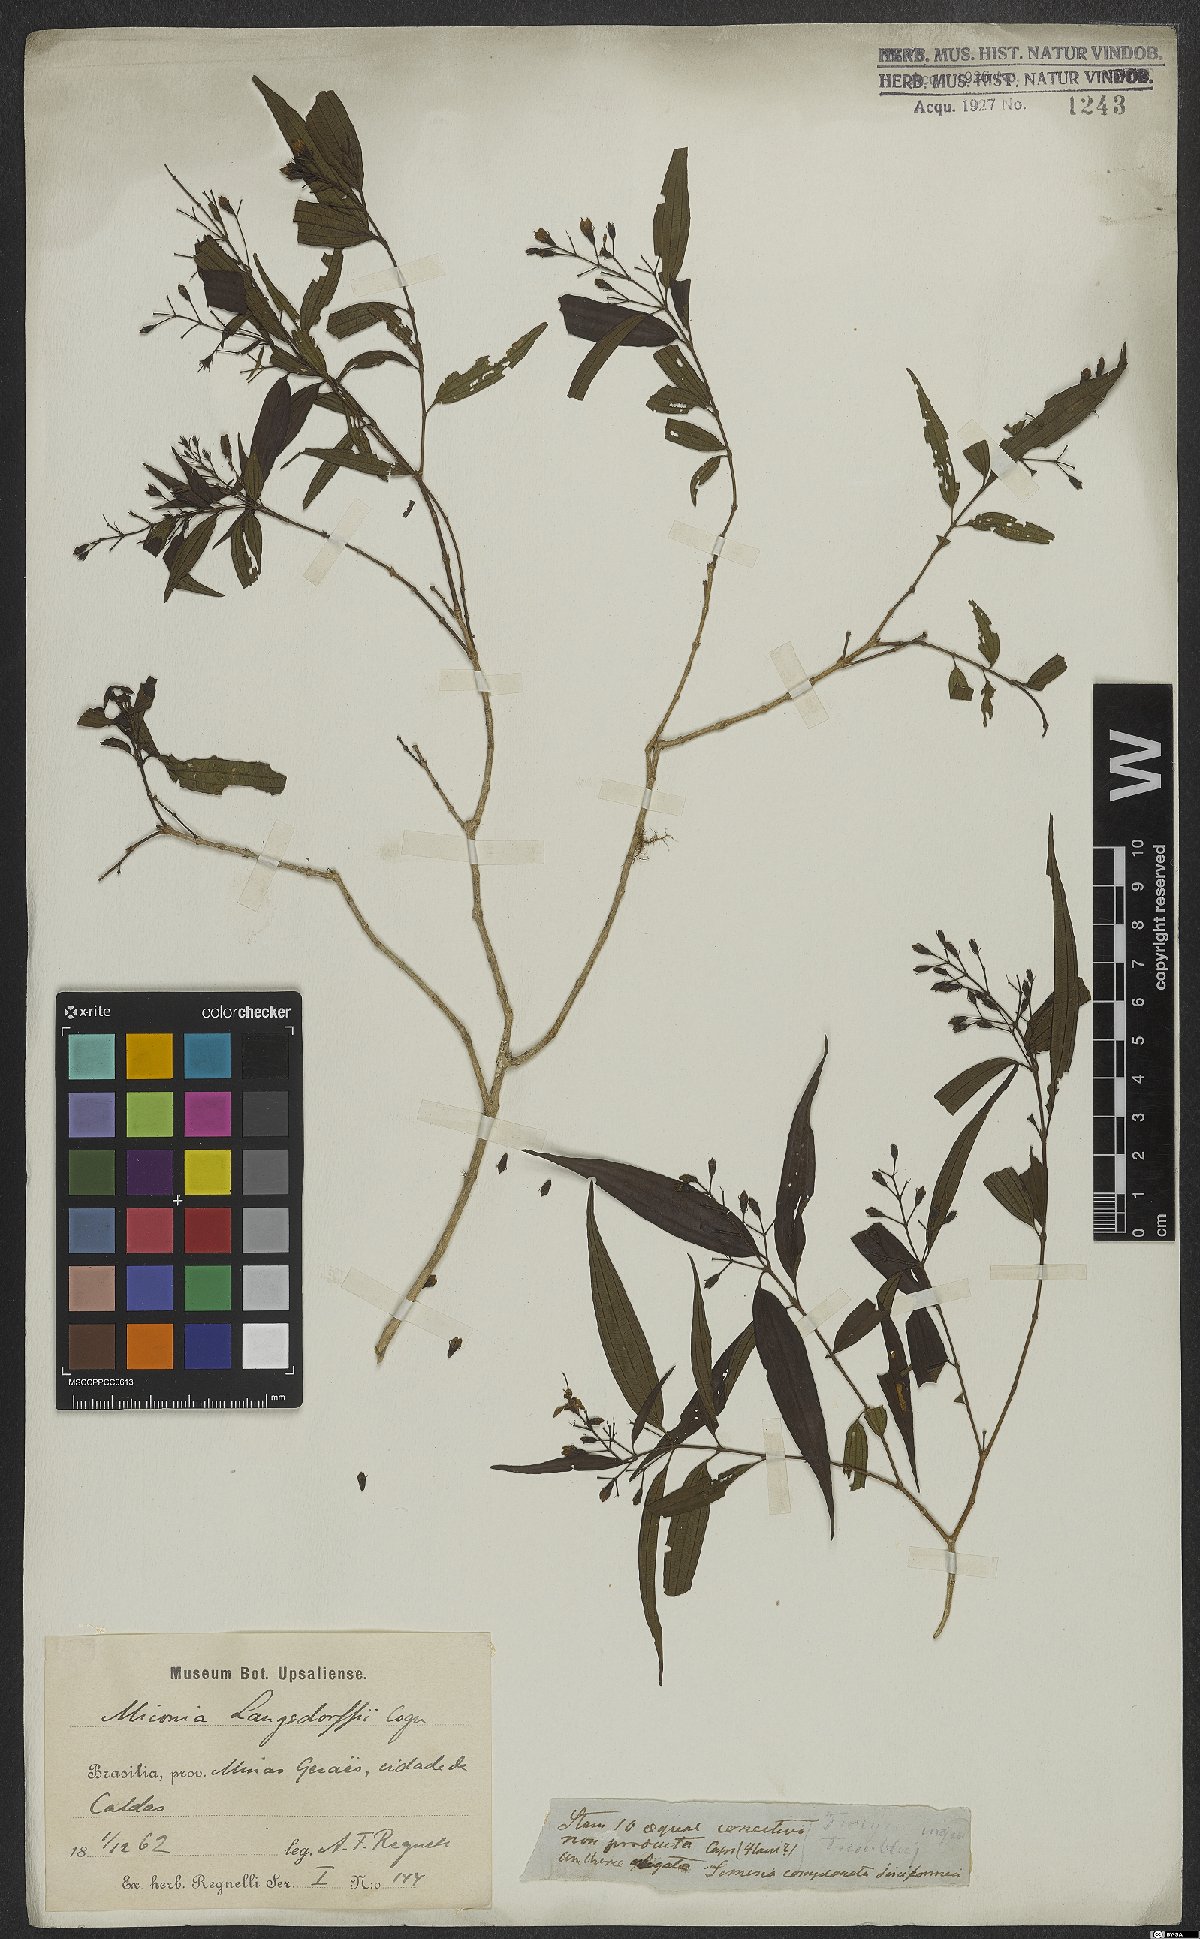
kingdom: Plantae
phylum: Tracheophyta
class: Magnoliopsida
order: Myrtales
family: Melastomataceae
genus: Miconia
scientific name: Miconia langsdorffii
